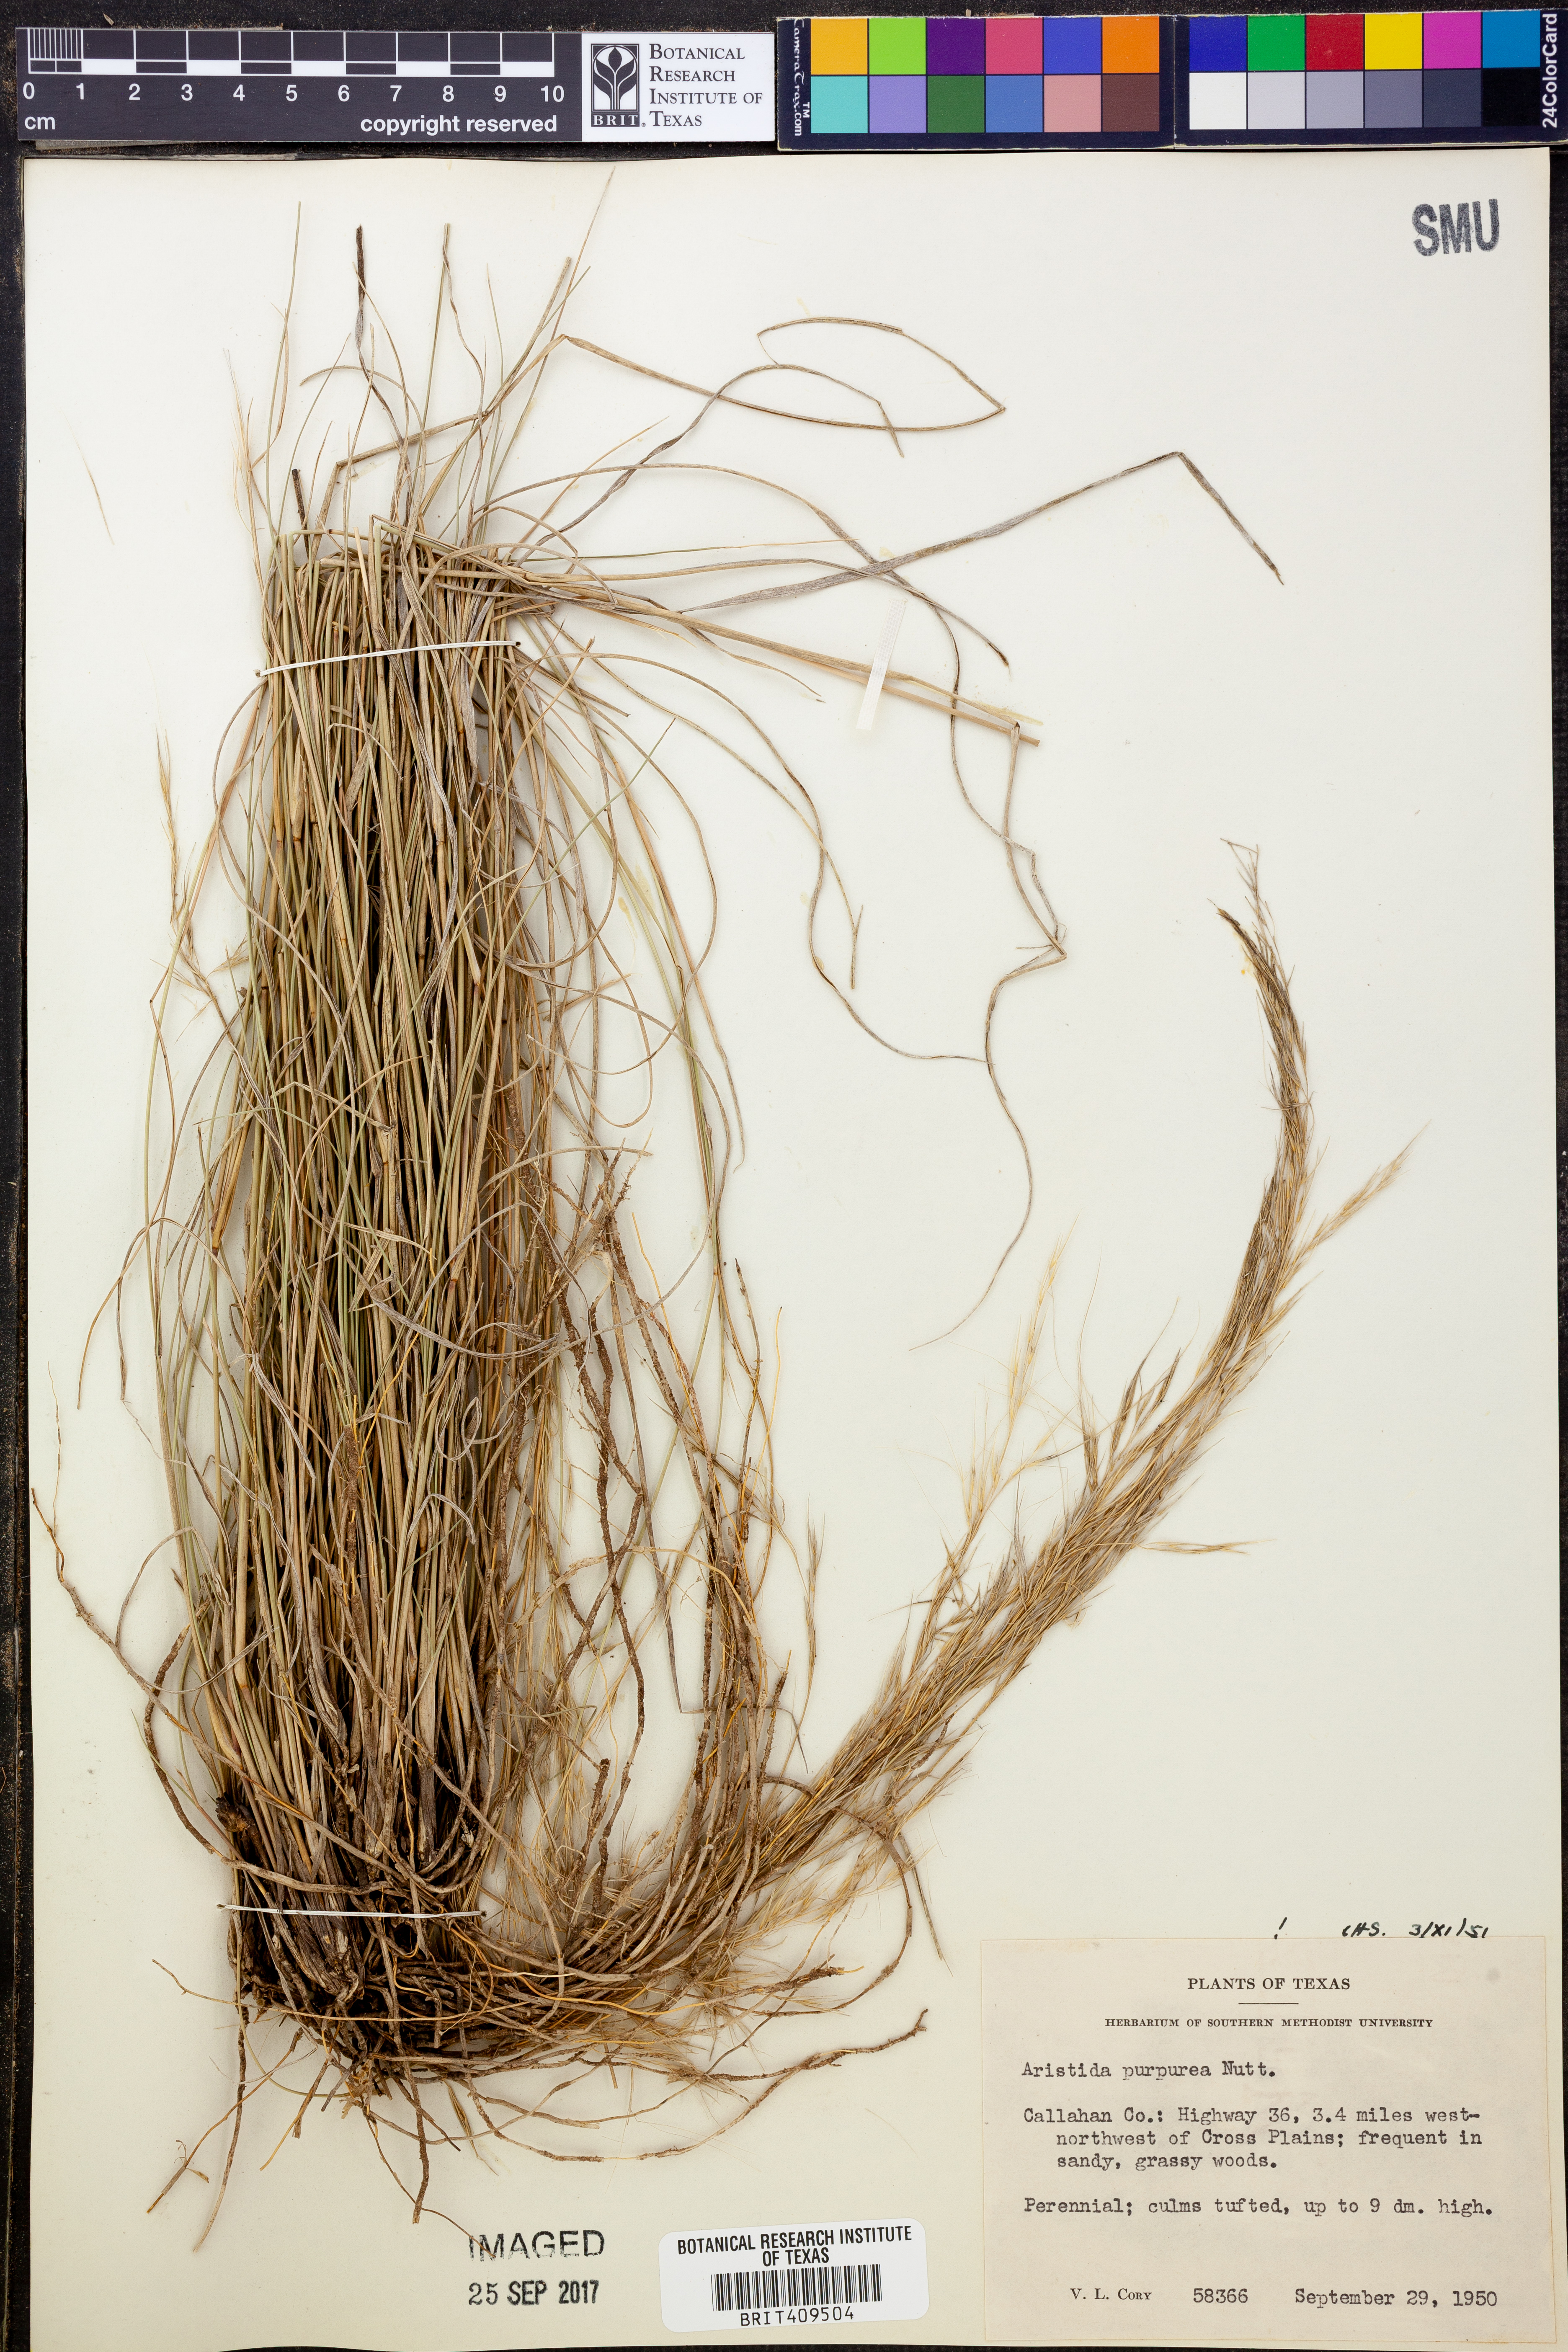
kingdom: Plantae
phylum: Tracheophyta
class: Liliopsida
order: Poales
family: Poaceae
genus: Aristida
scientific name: Aristida purpurea
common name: Purple threeawn
